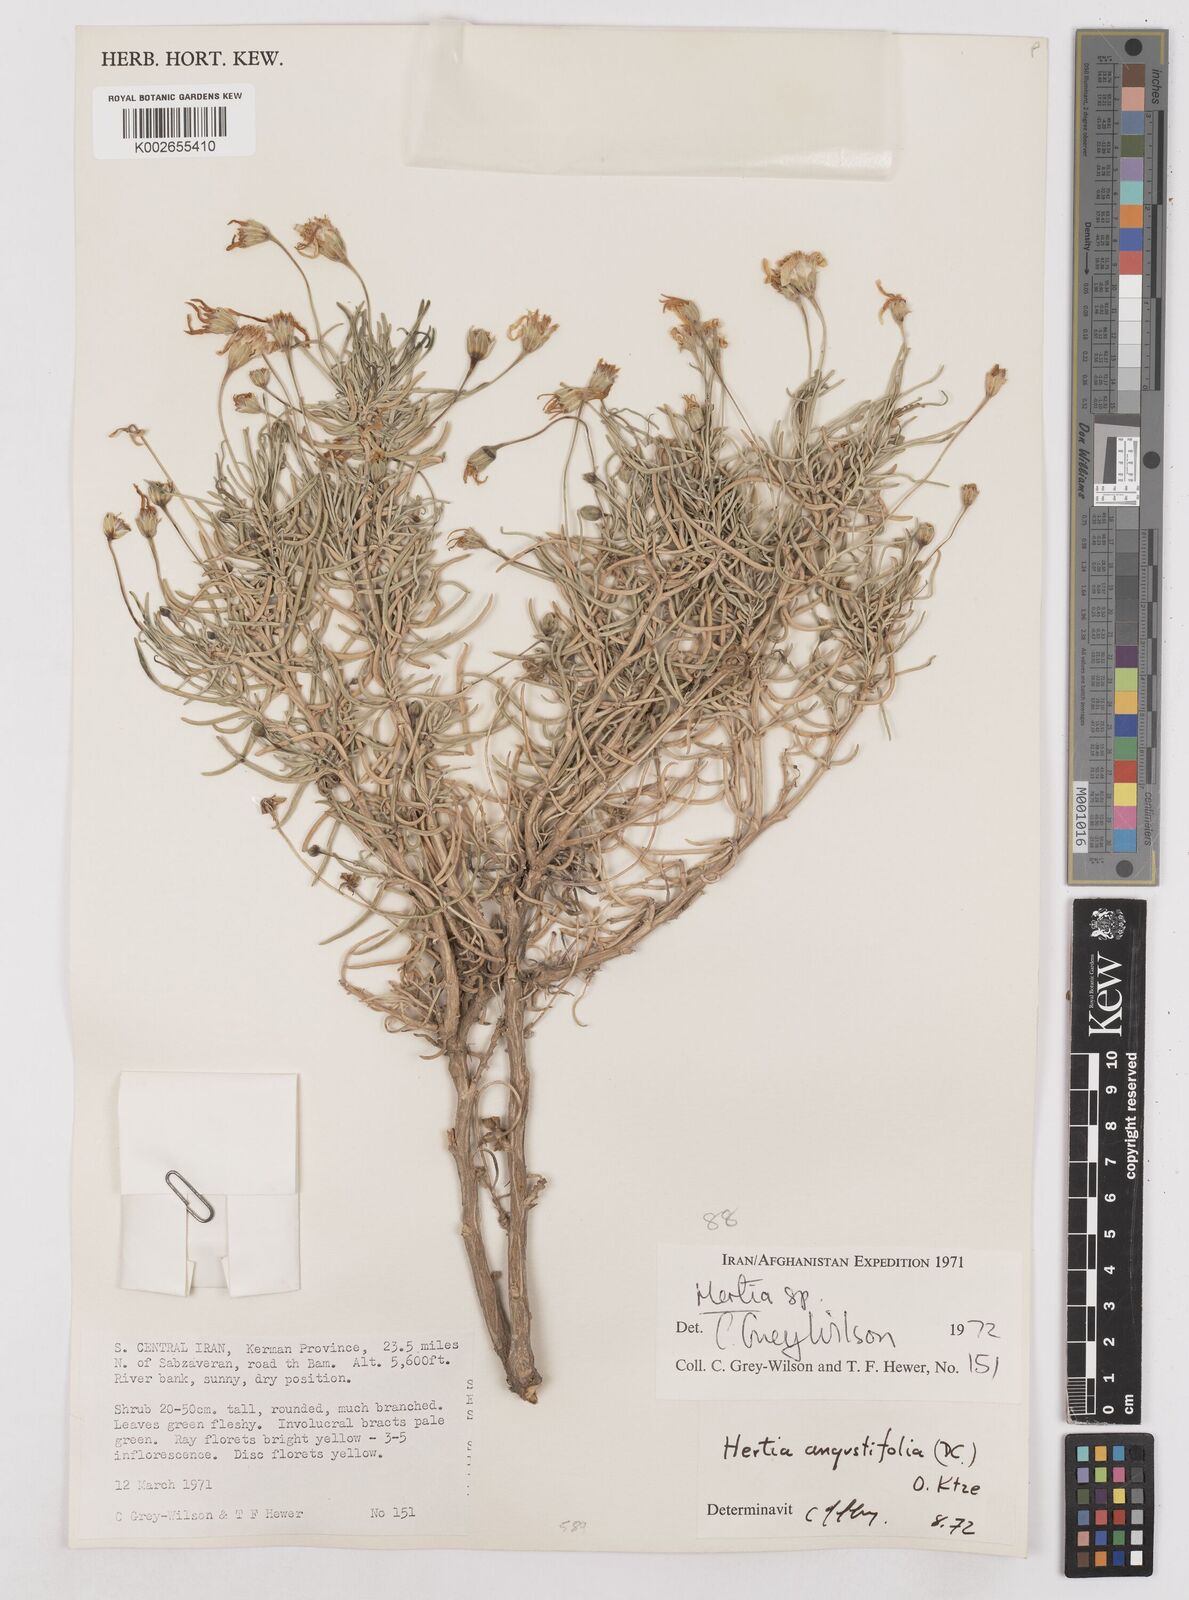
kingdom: Plantae
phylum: Tracheophyta
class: Magnoliopsida
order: Asterales
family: Asteraceae
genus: Hertia
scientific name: Hertia angustifolia
